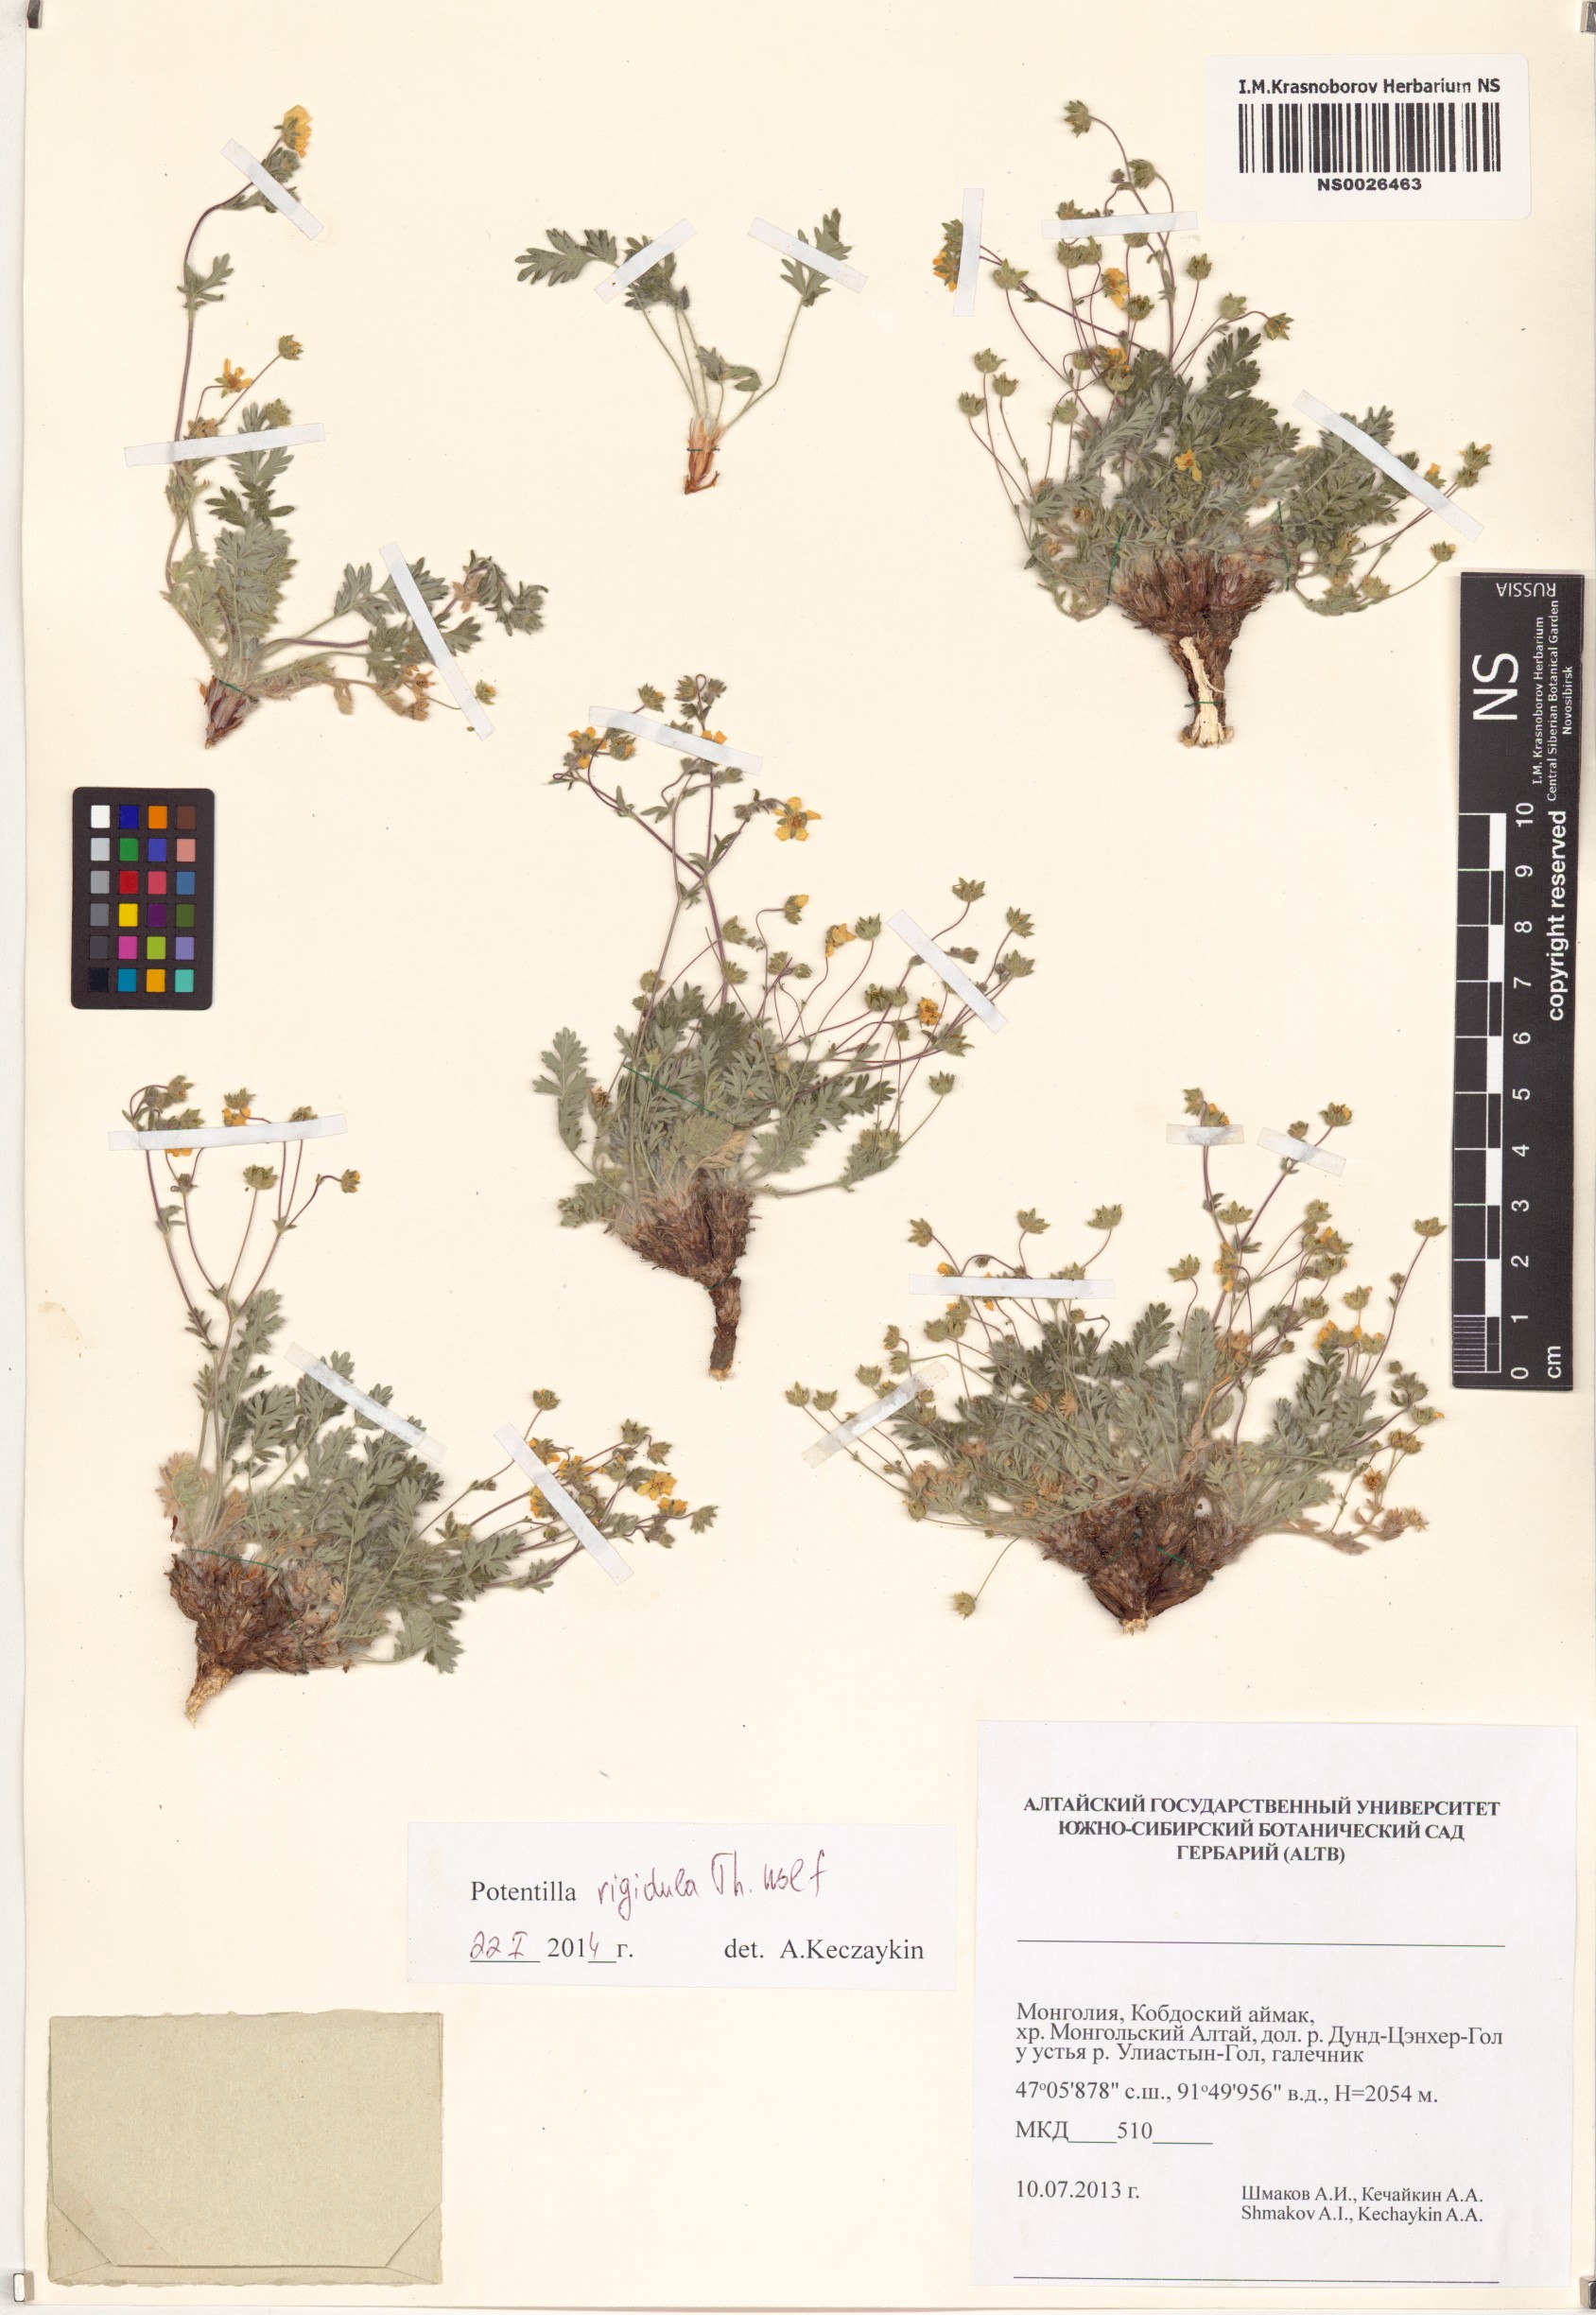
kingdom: Plantae
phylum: Tracheophyta
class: Magnoliopsida
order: Rosales
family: Rosaceae
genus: Potentilla
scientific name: Potentilla rigidula
